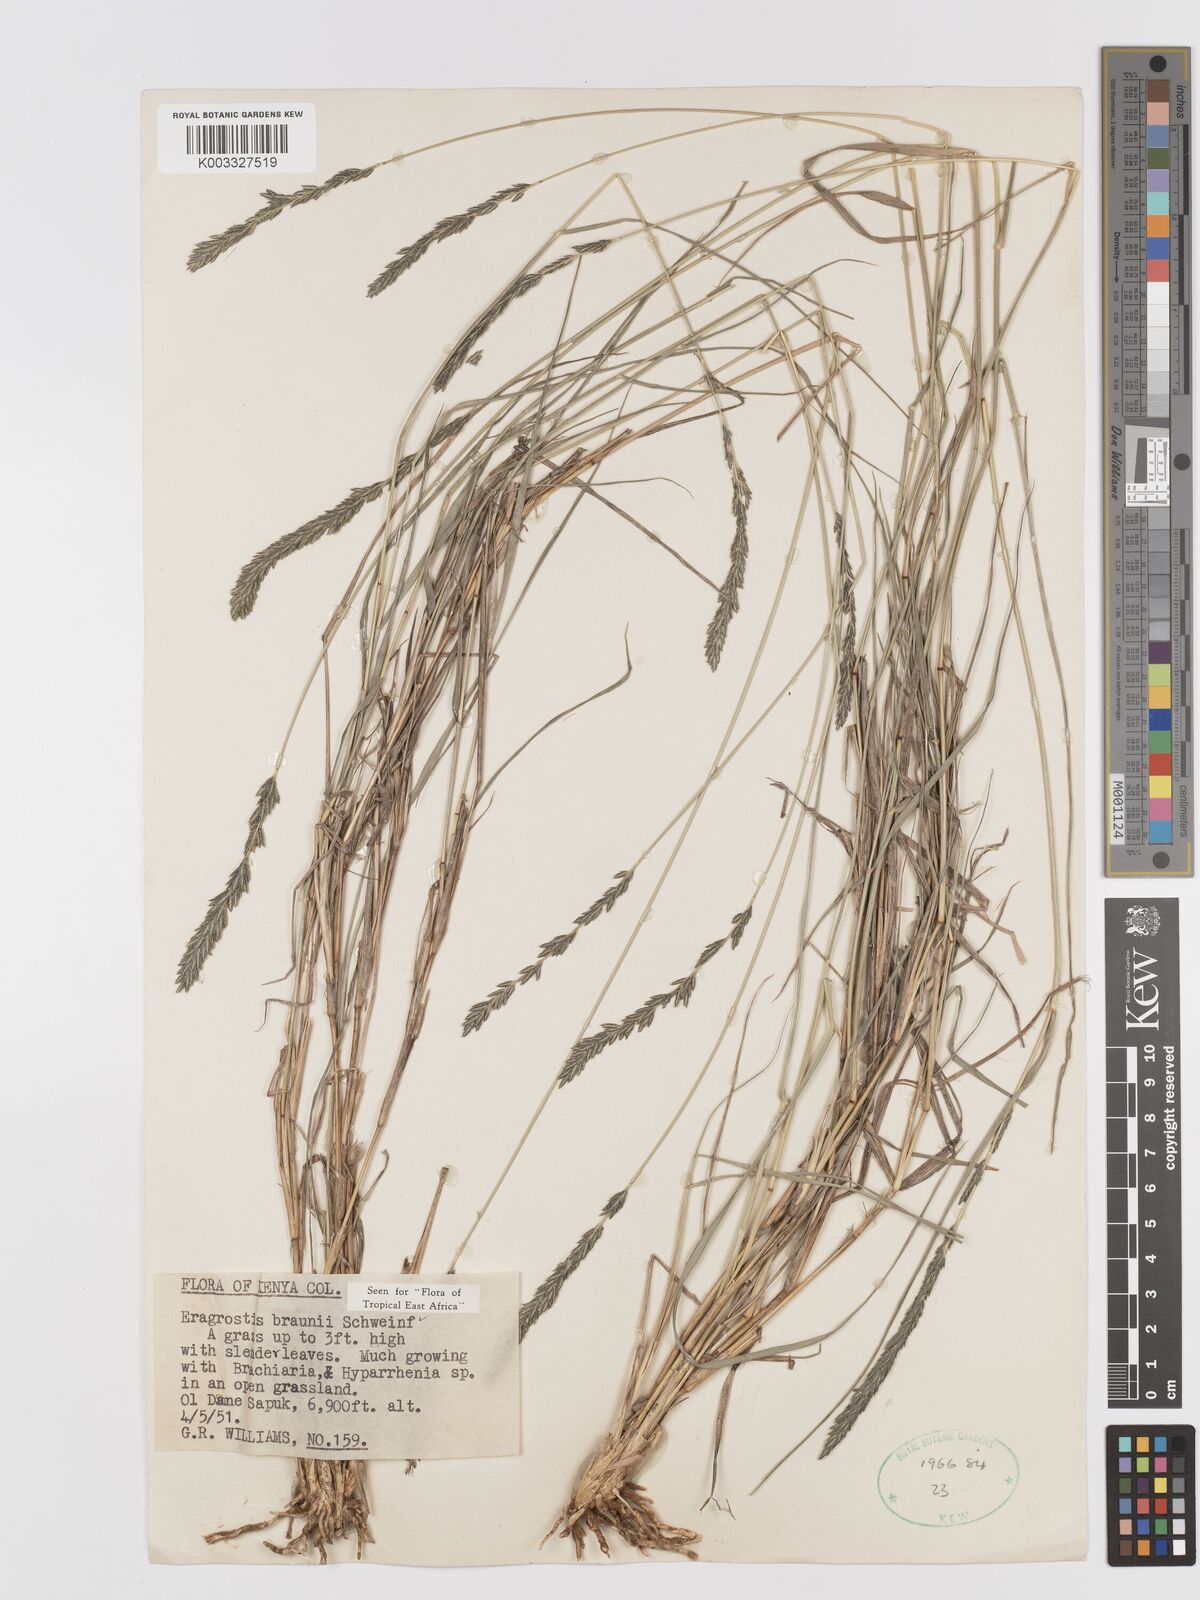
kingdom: Plantae
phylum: Tracheophyta
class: Liliopsida
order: Poales
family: Poaceae
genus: Eragrostis
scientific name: Eragrostis braunii
